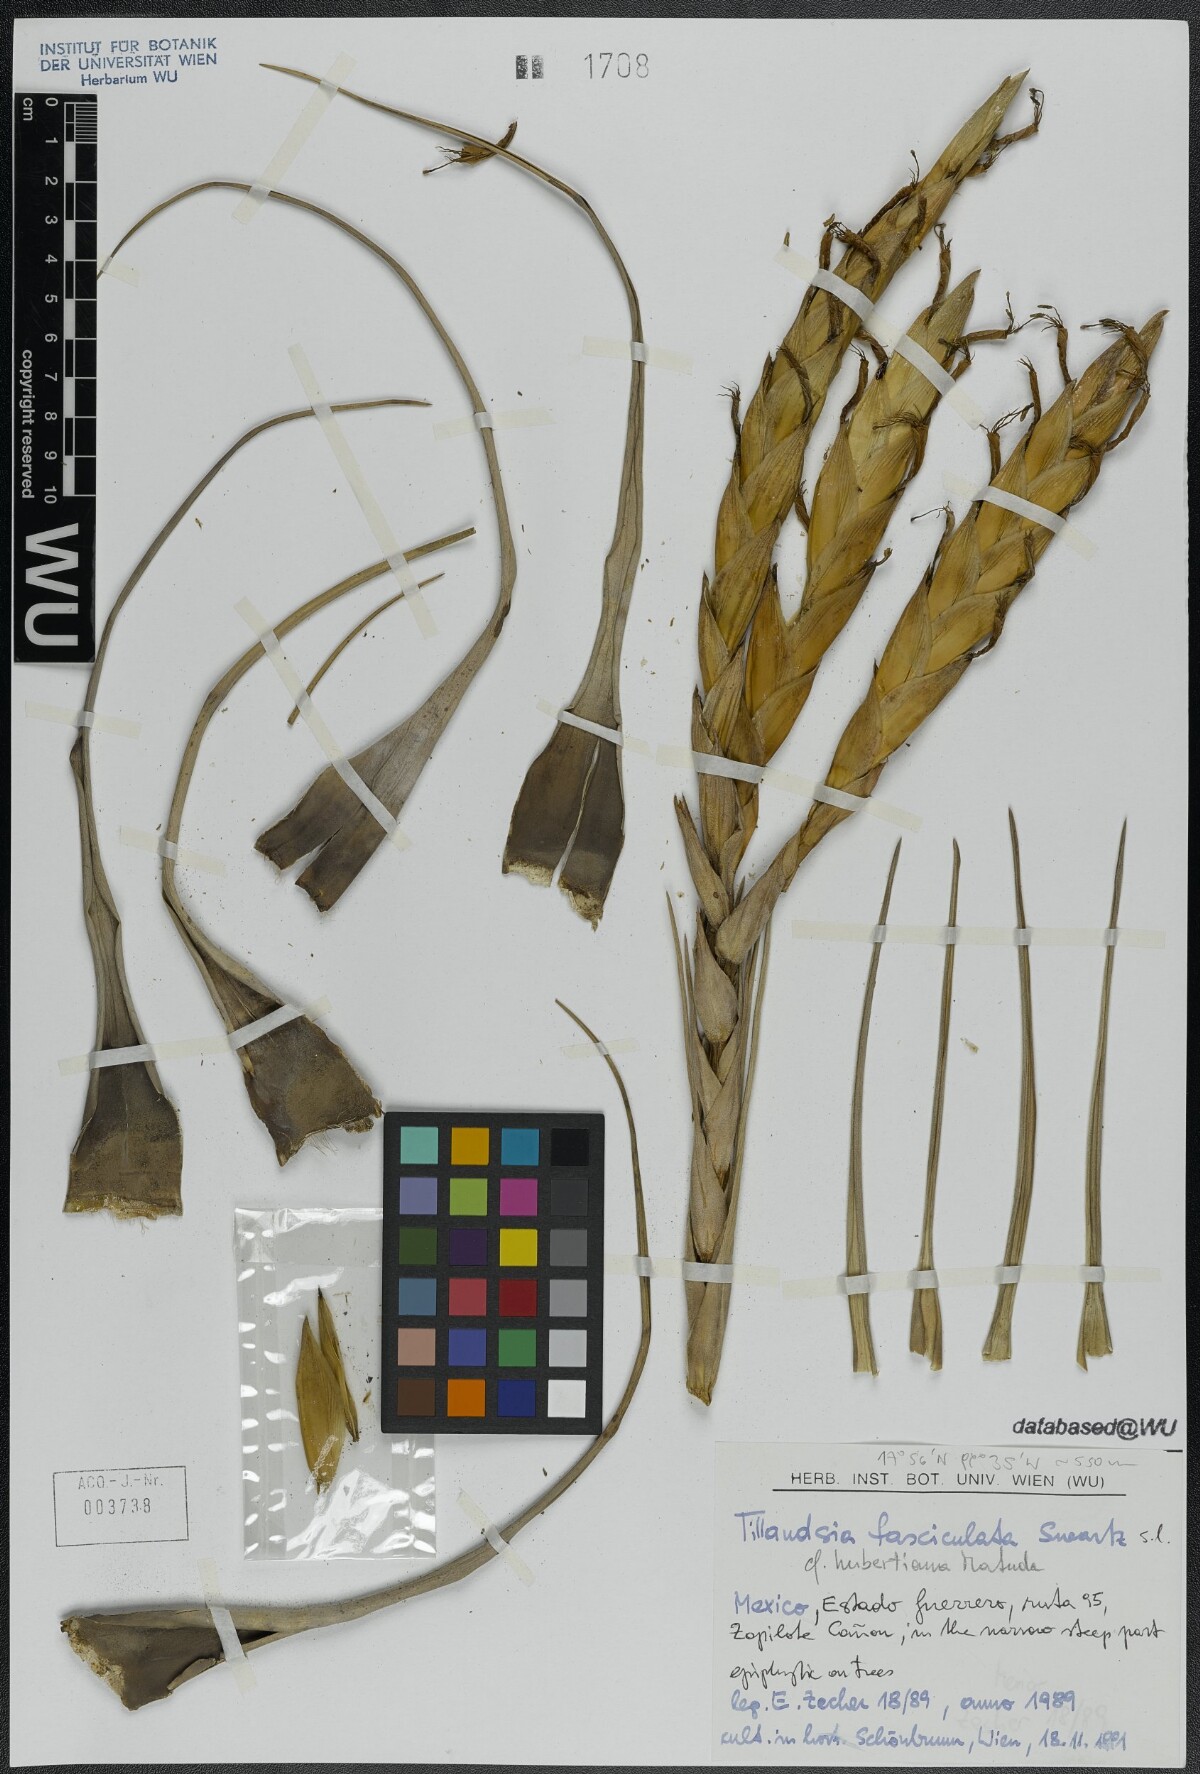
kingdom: Plantae
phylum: Tracheophyta
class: Liliopsida
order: Poales
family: Bromeliaceae
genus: Tillandsia
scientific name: Tillandsia fasciculata
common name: Giant airplant
